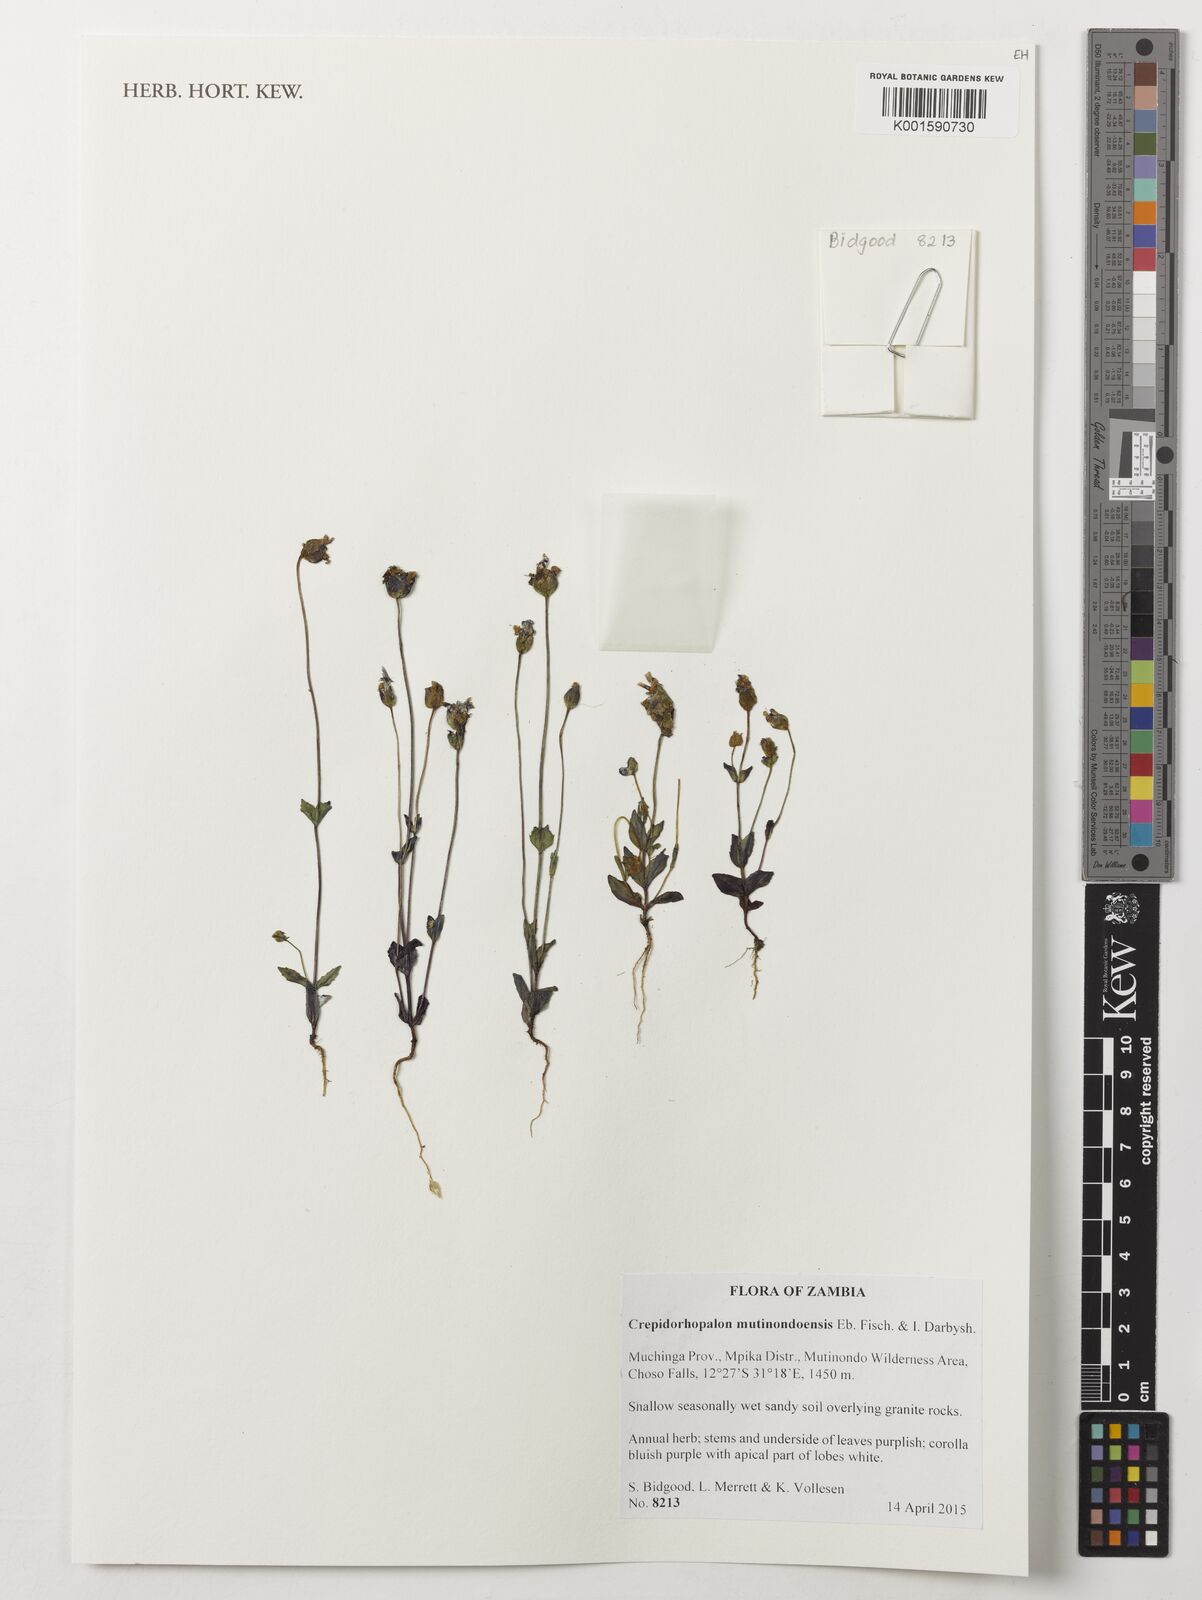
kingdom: Plantae
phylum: Tracheophyta
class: Magnoliopsida
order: Lamiales
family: Linderniaceae
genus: Crepidorhopalon
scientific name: Crepidorhopalon mutinondoensis
